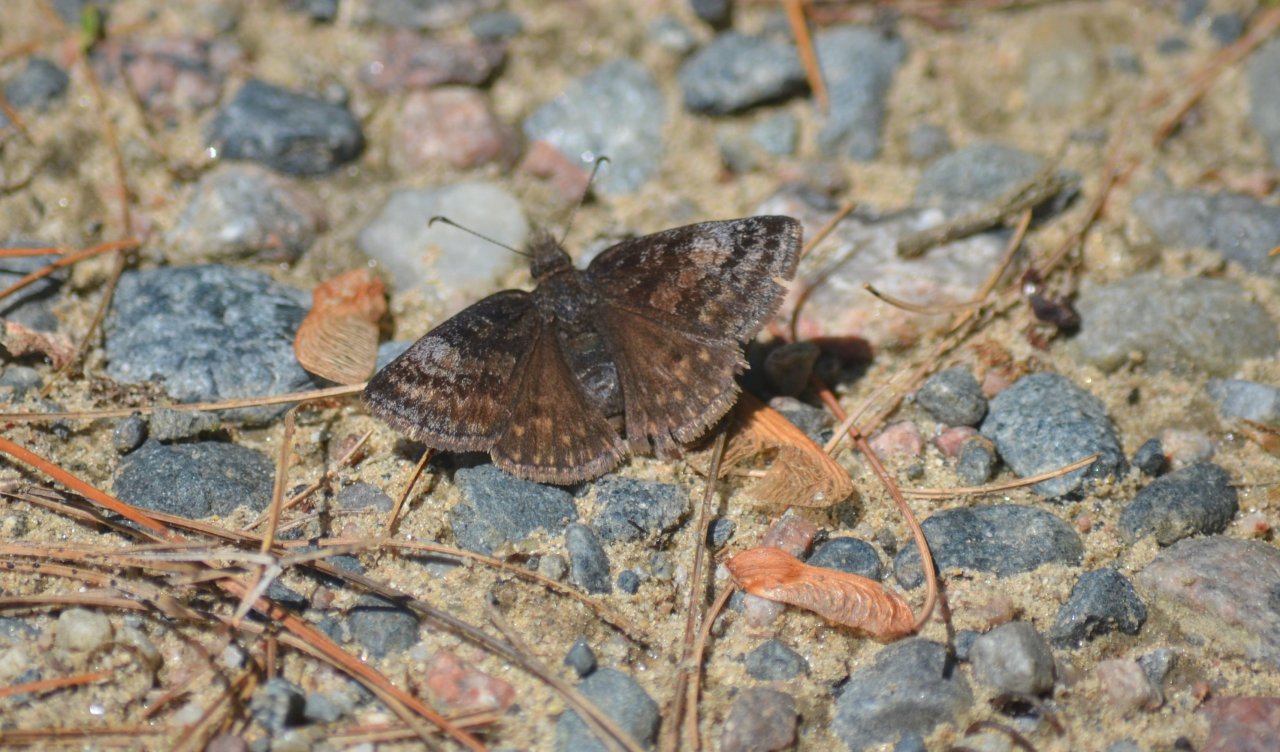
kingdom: Animalia
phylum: Arthropoda
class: Insecta
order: Lepidoptera
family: Hesperiidae
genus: Erynnis
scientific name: Erynnis icelus
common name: Dreamy Duskywing
